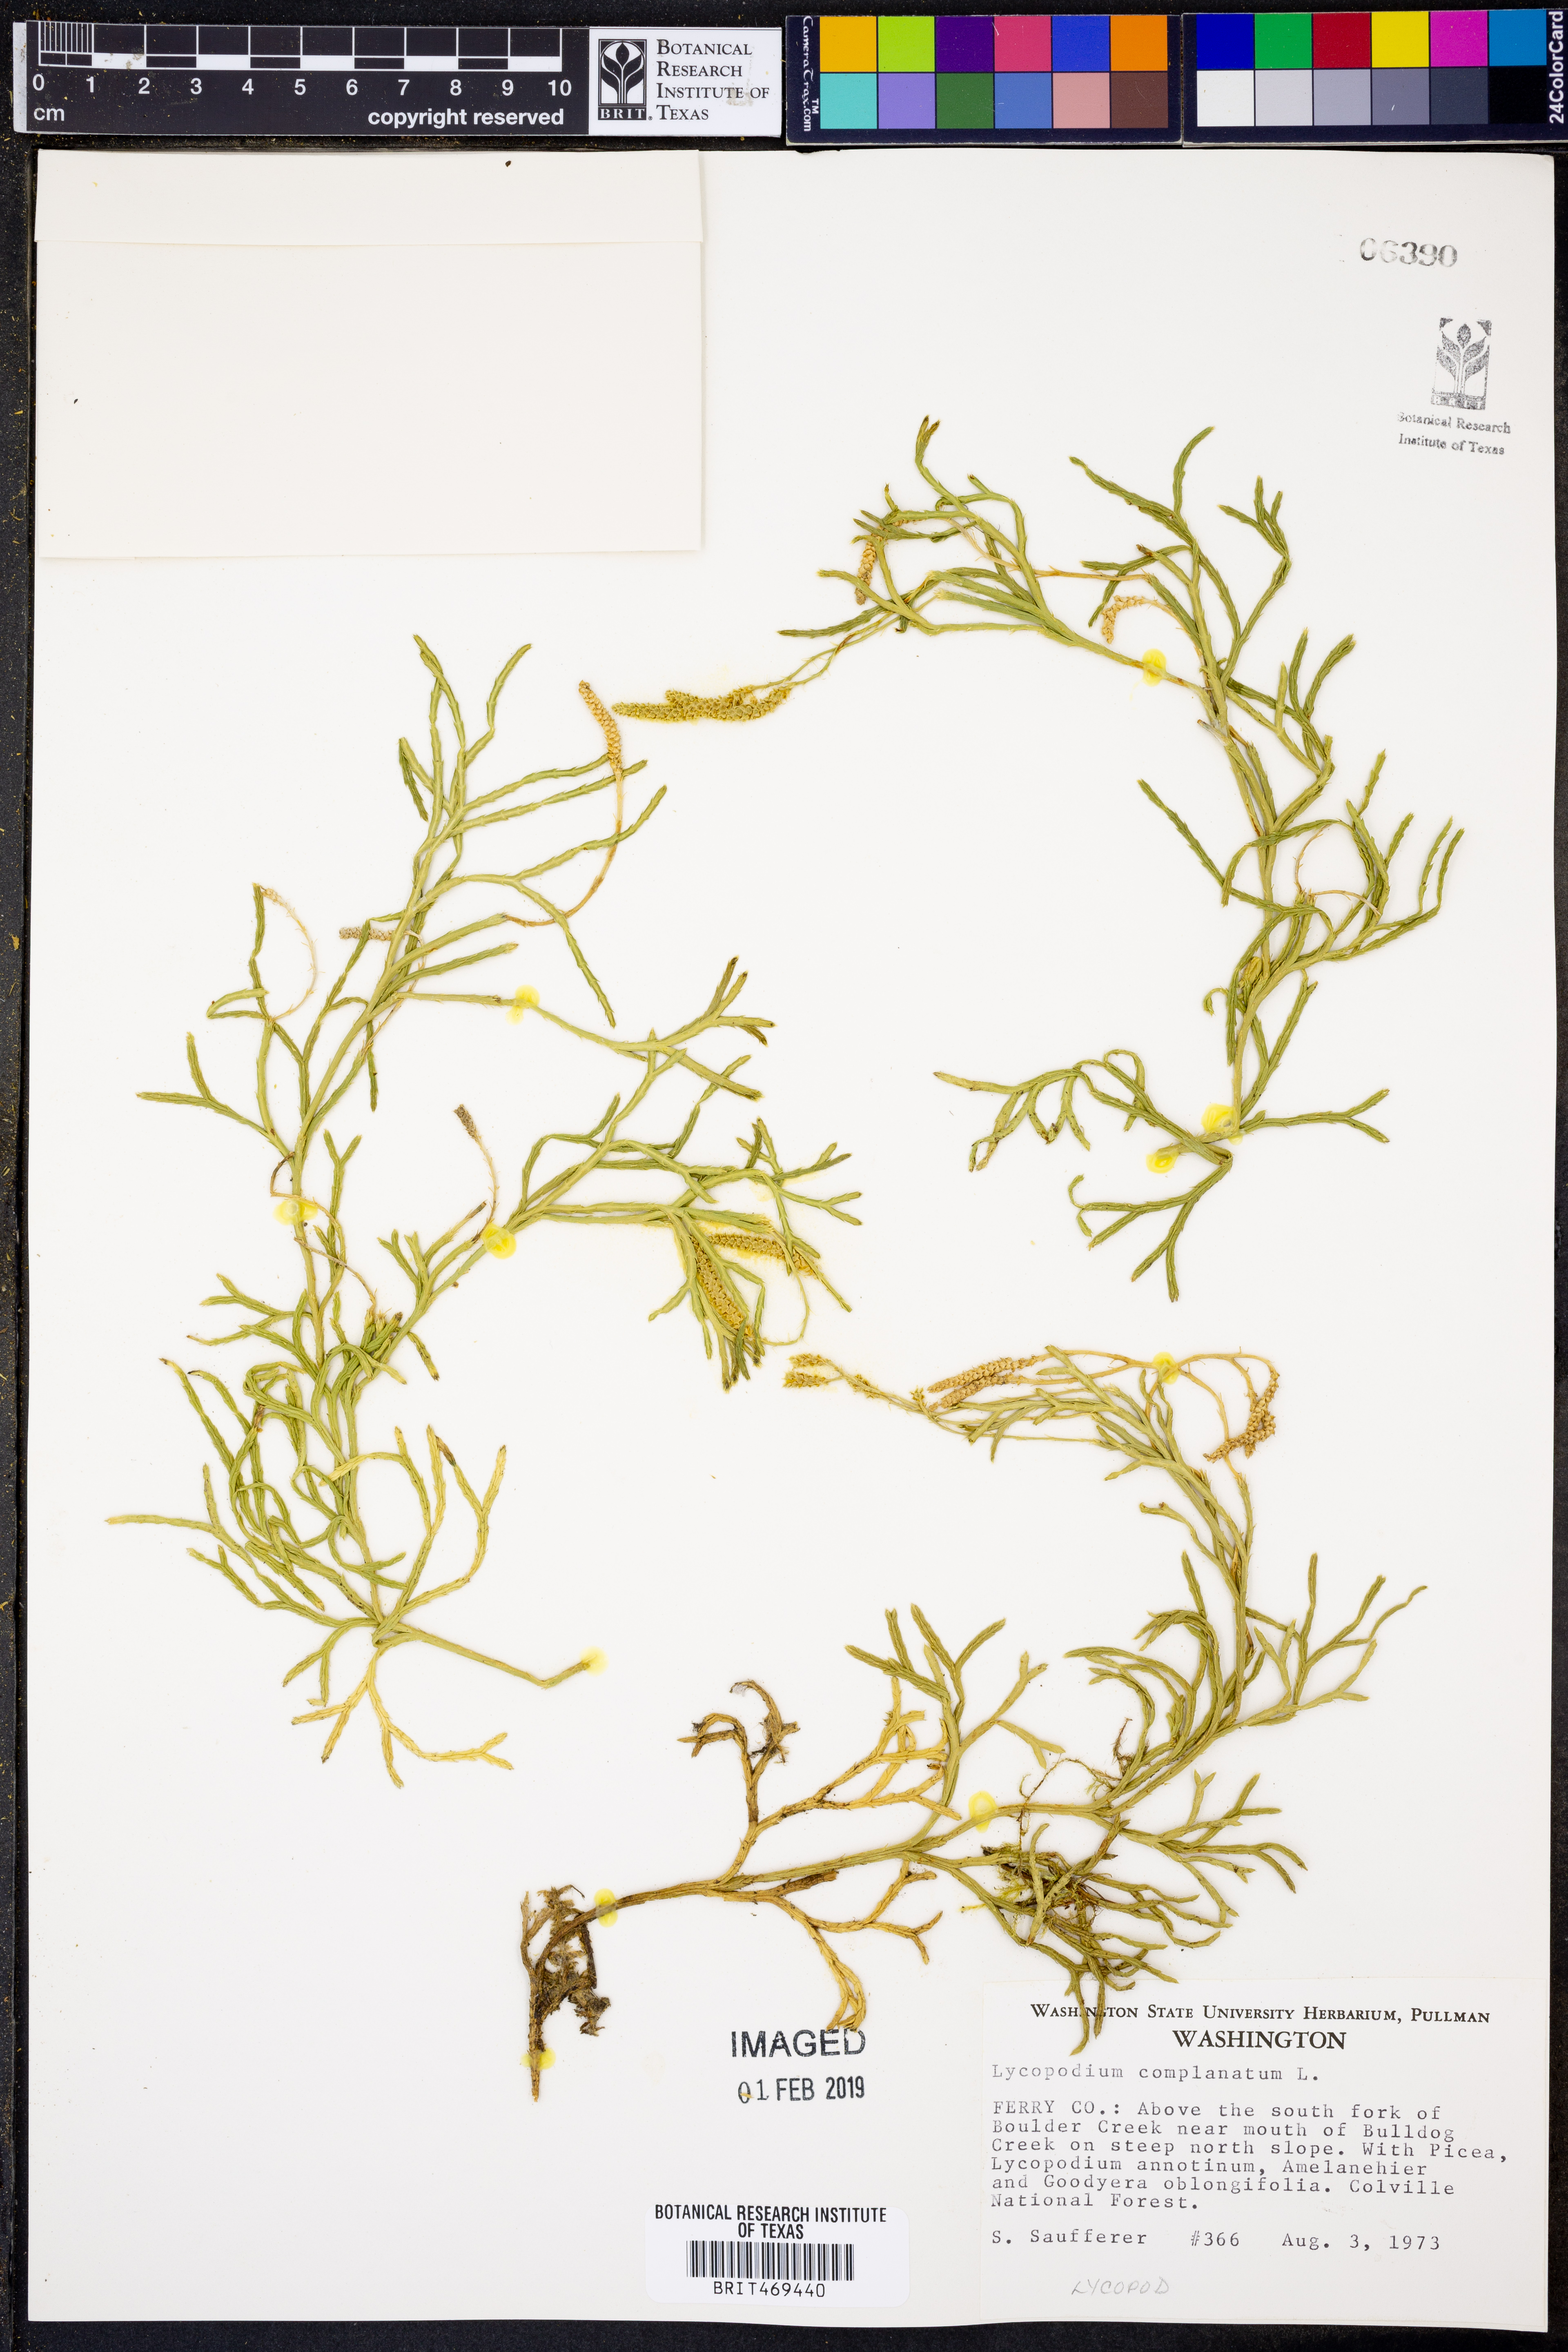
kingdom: Plantae
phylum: Tracheophyta
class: Lycopodiopsida
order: Lycopodiales
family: Lycopodiaceae
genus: Diphasiastrum
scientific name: Diphasiastrum complanatum
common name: Northern running-pine
